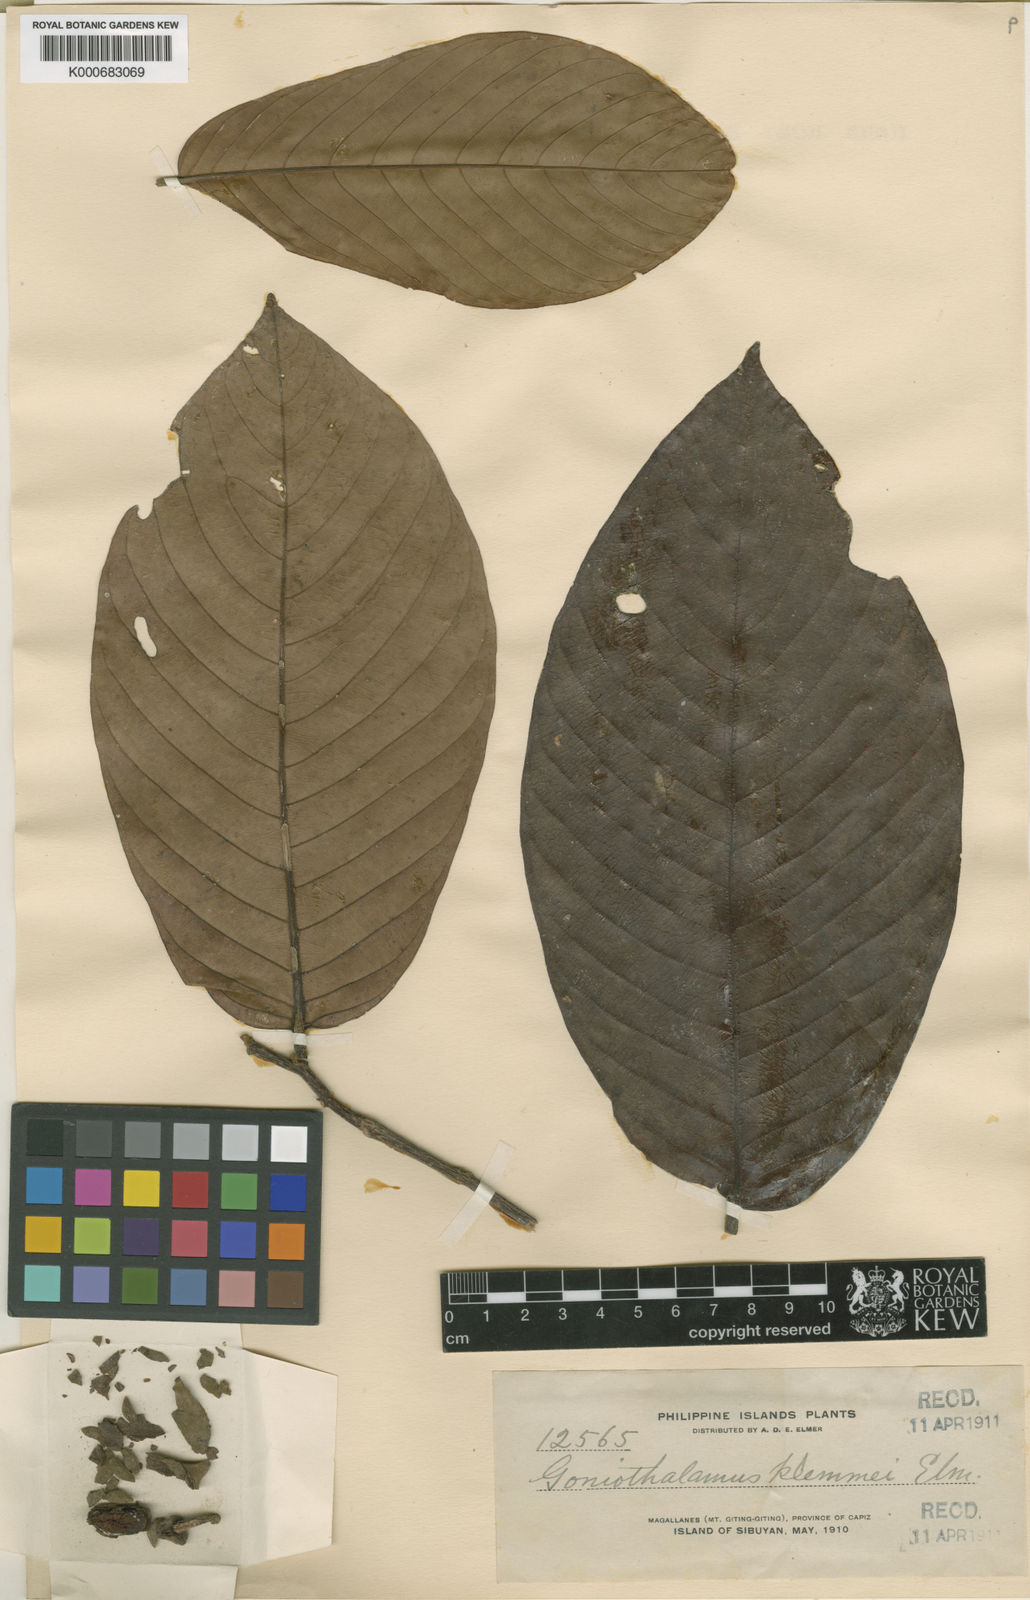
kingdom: Plantae
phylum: Tracheophyta
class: Magnoliopsida
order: Magnoliales
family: Annonaceae
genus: Goniothalamus
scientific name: Goniothalamus
